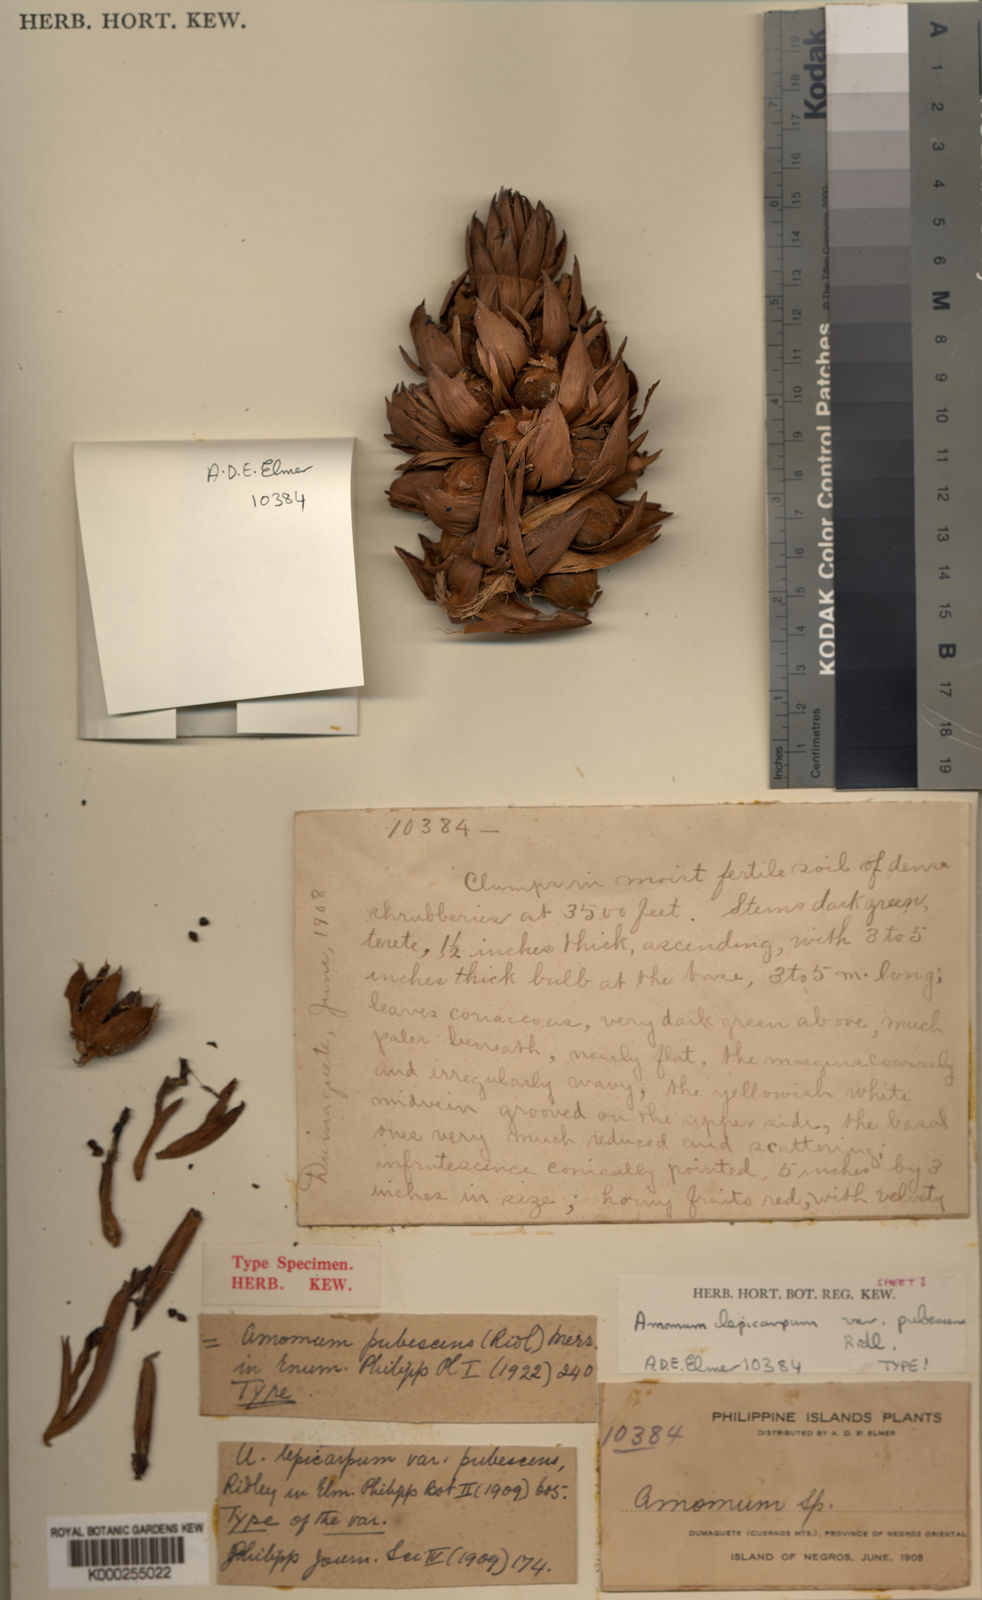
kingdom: Plantae
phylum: Tracheophyta
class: Liliopsida
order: Zingiberales
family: Zingiberaceae
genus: Etlingera
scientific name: Etlingera pilosa
